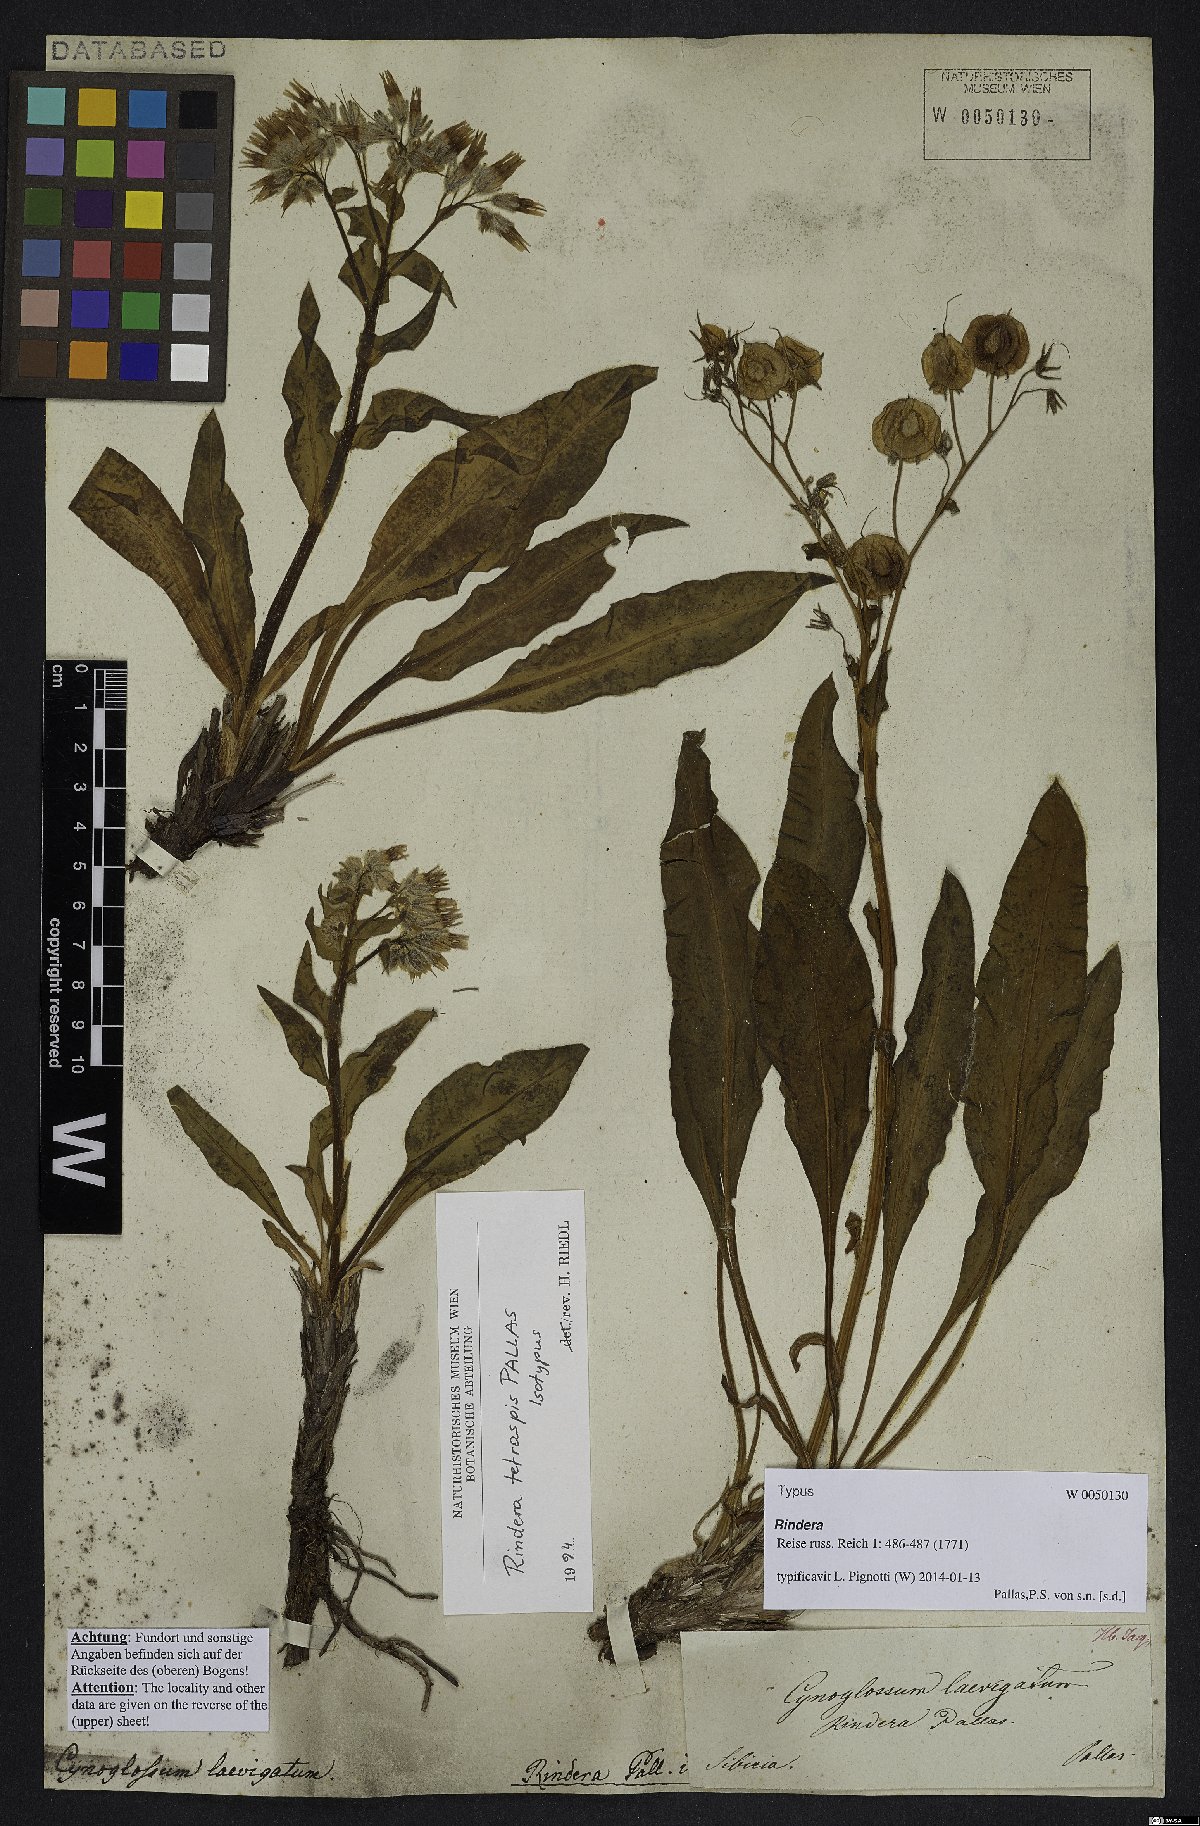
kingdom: Plantae
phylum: Tracheophyta
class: Magnoliopsida
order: Boraginales
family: Boraginaceae
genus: Rindera
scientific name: Rindera tetraspis
